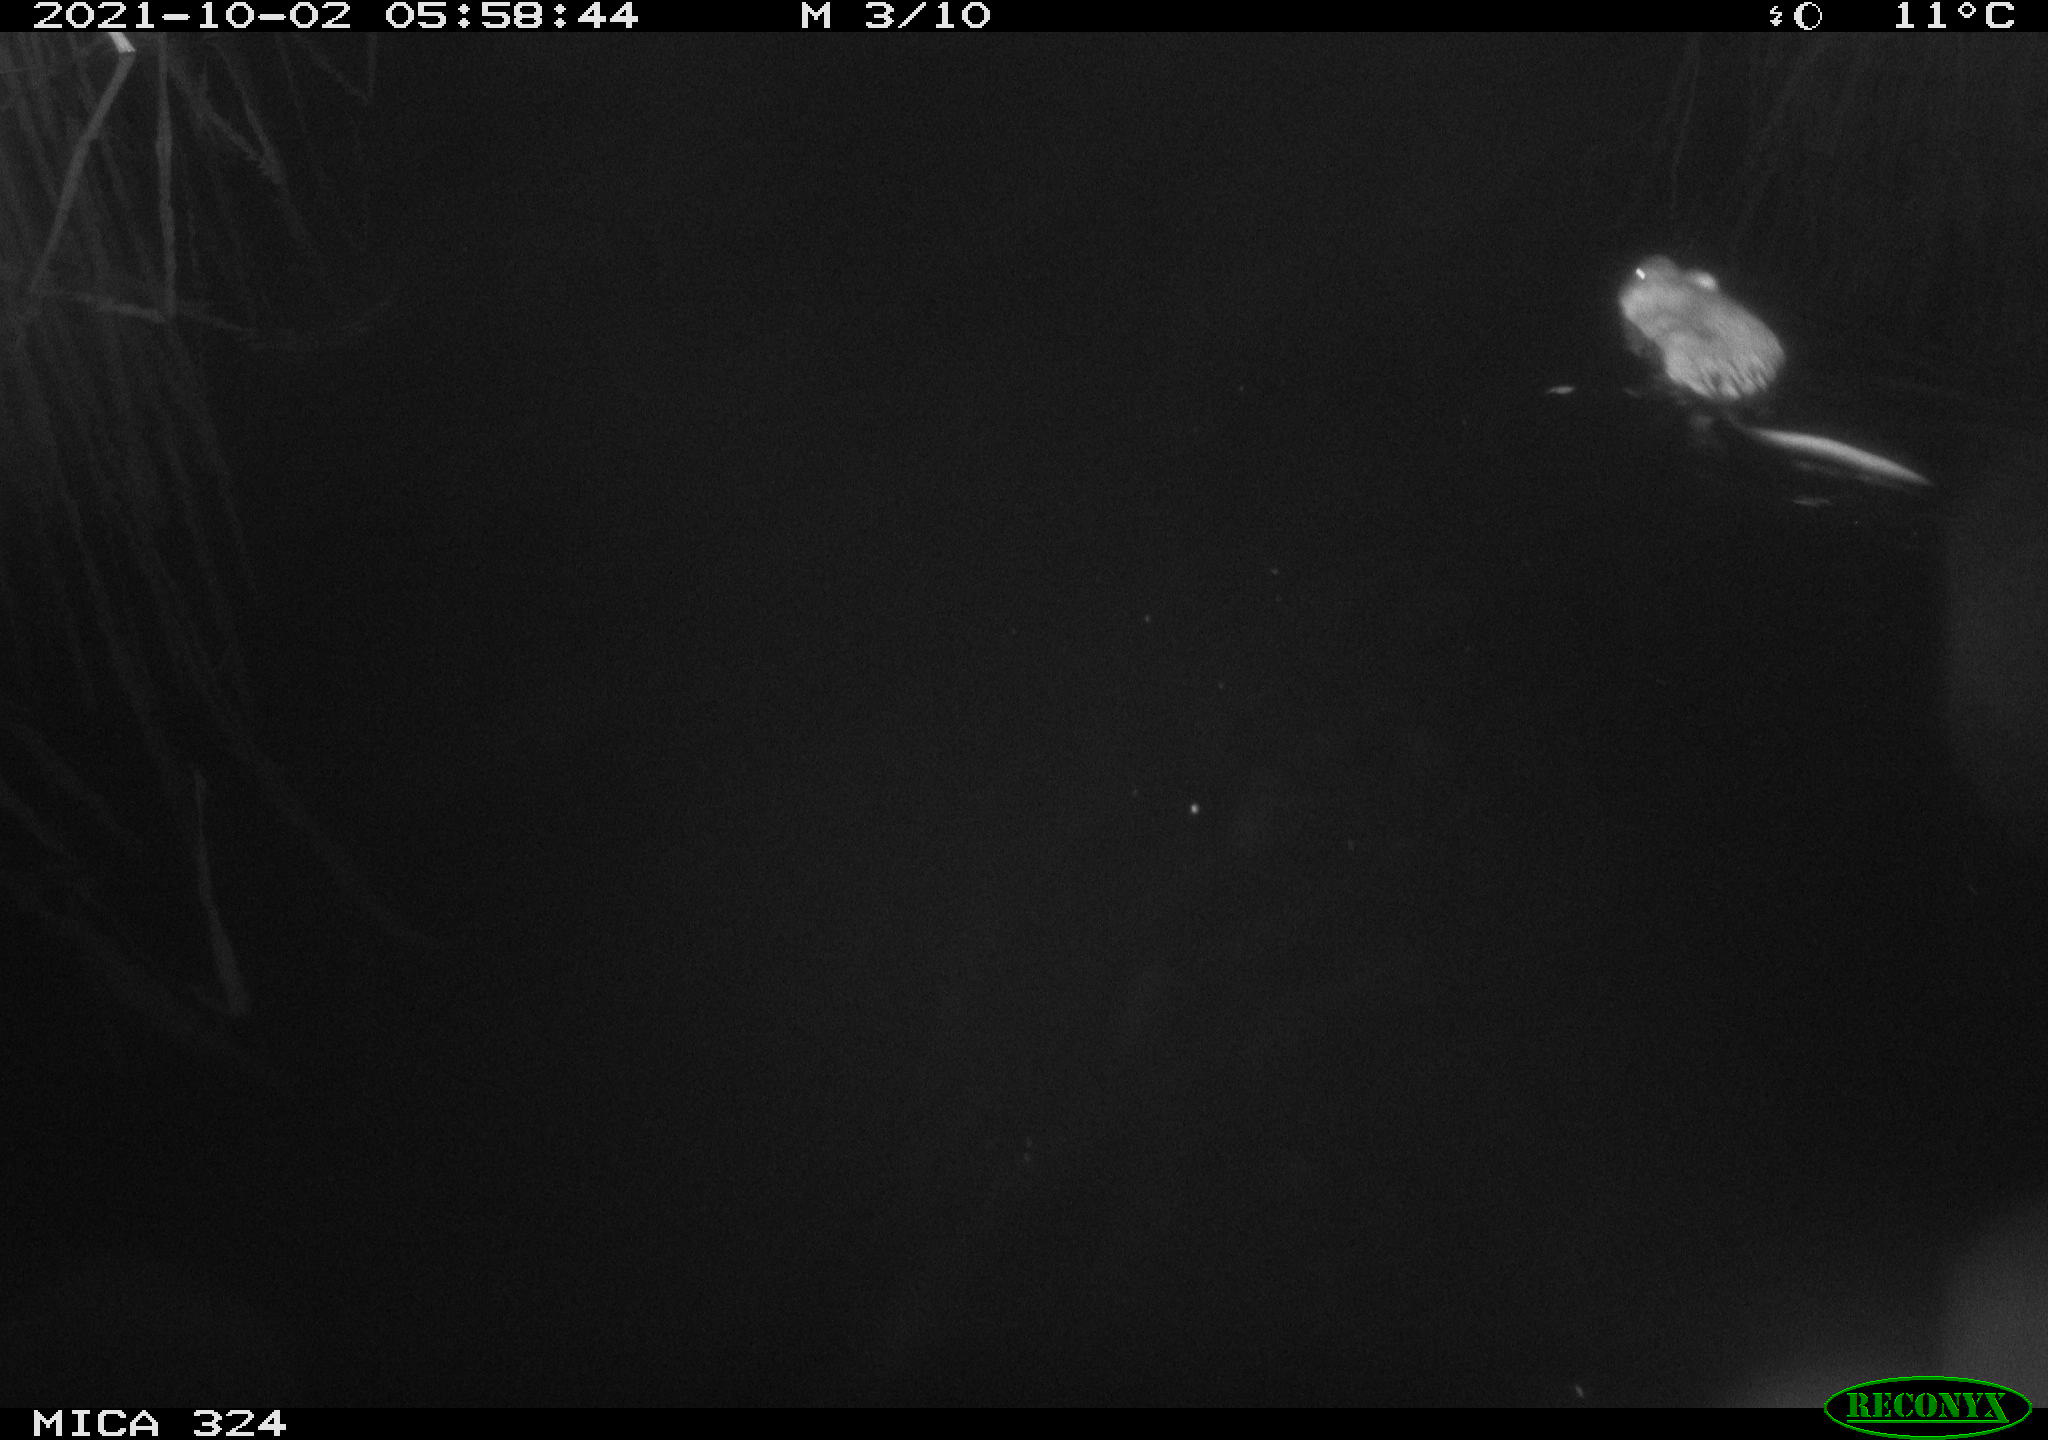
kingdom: Animalia
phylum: Chordata
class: Mammalia
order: Rodentia
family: Cricetidae
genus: Ondatra
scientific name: Ondatra zibethicus
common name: Muskrat
